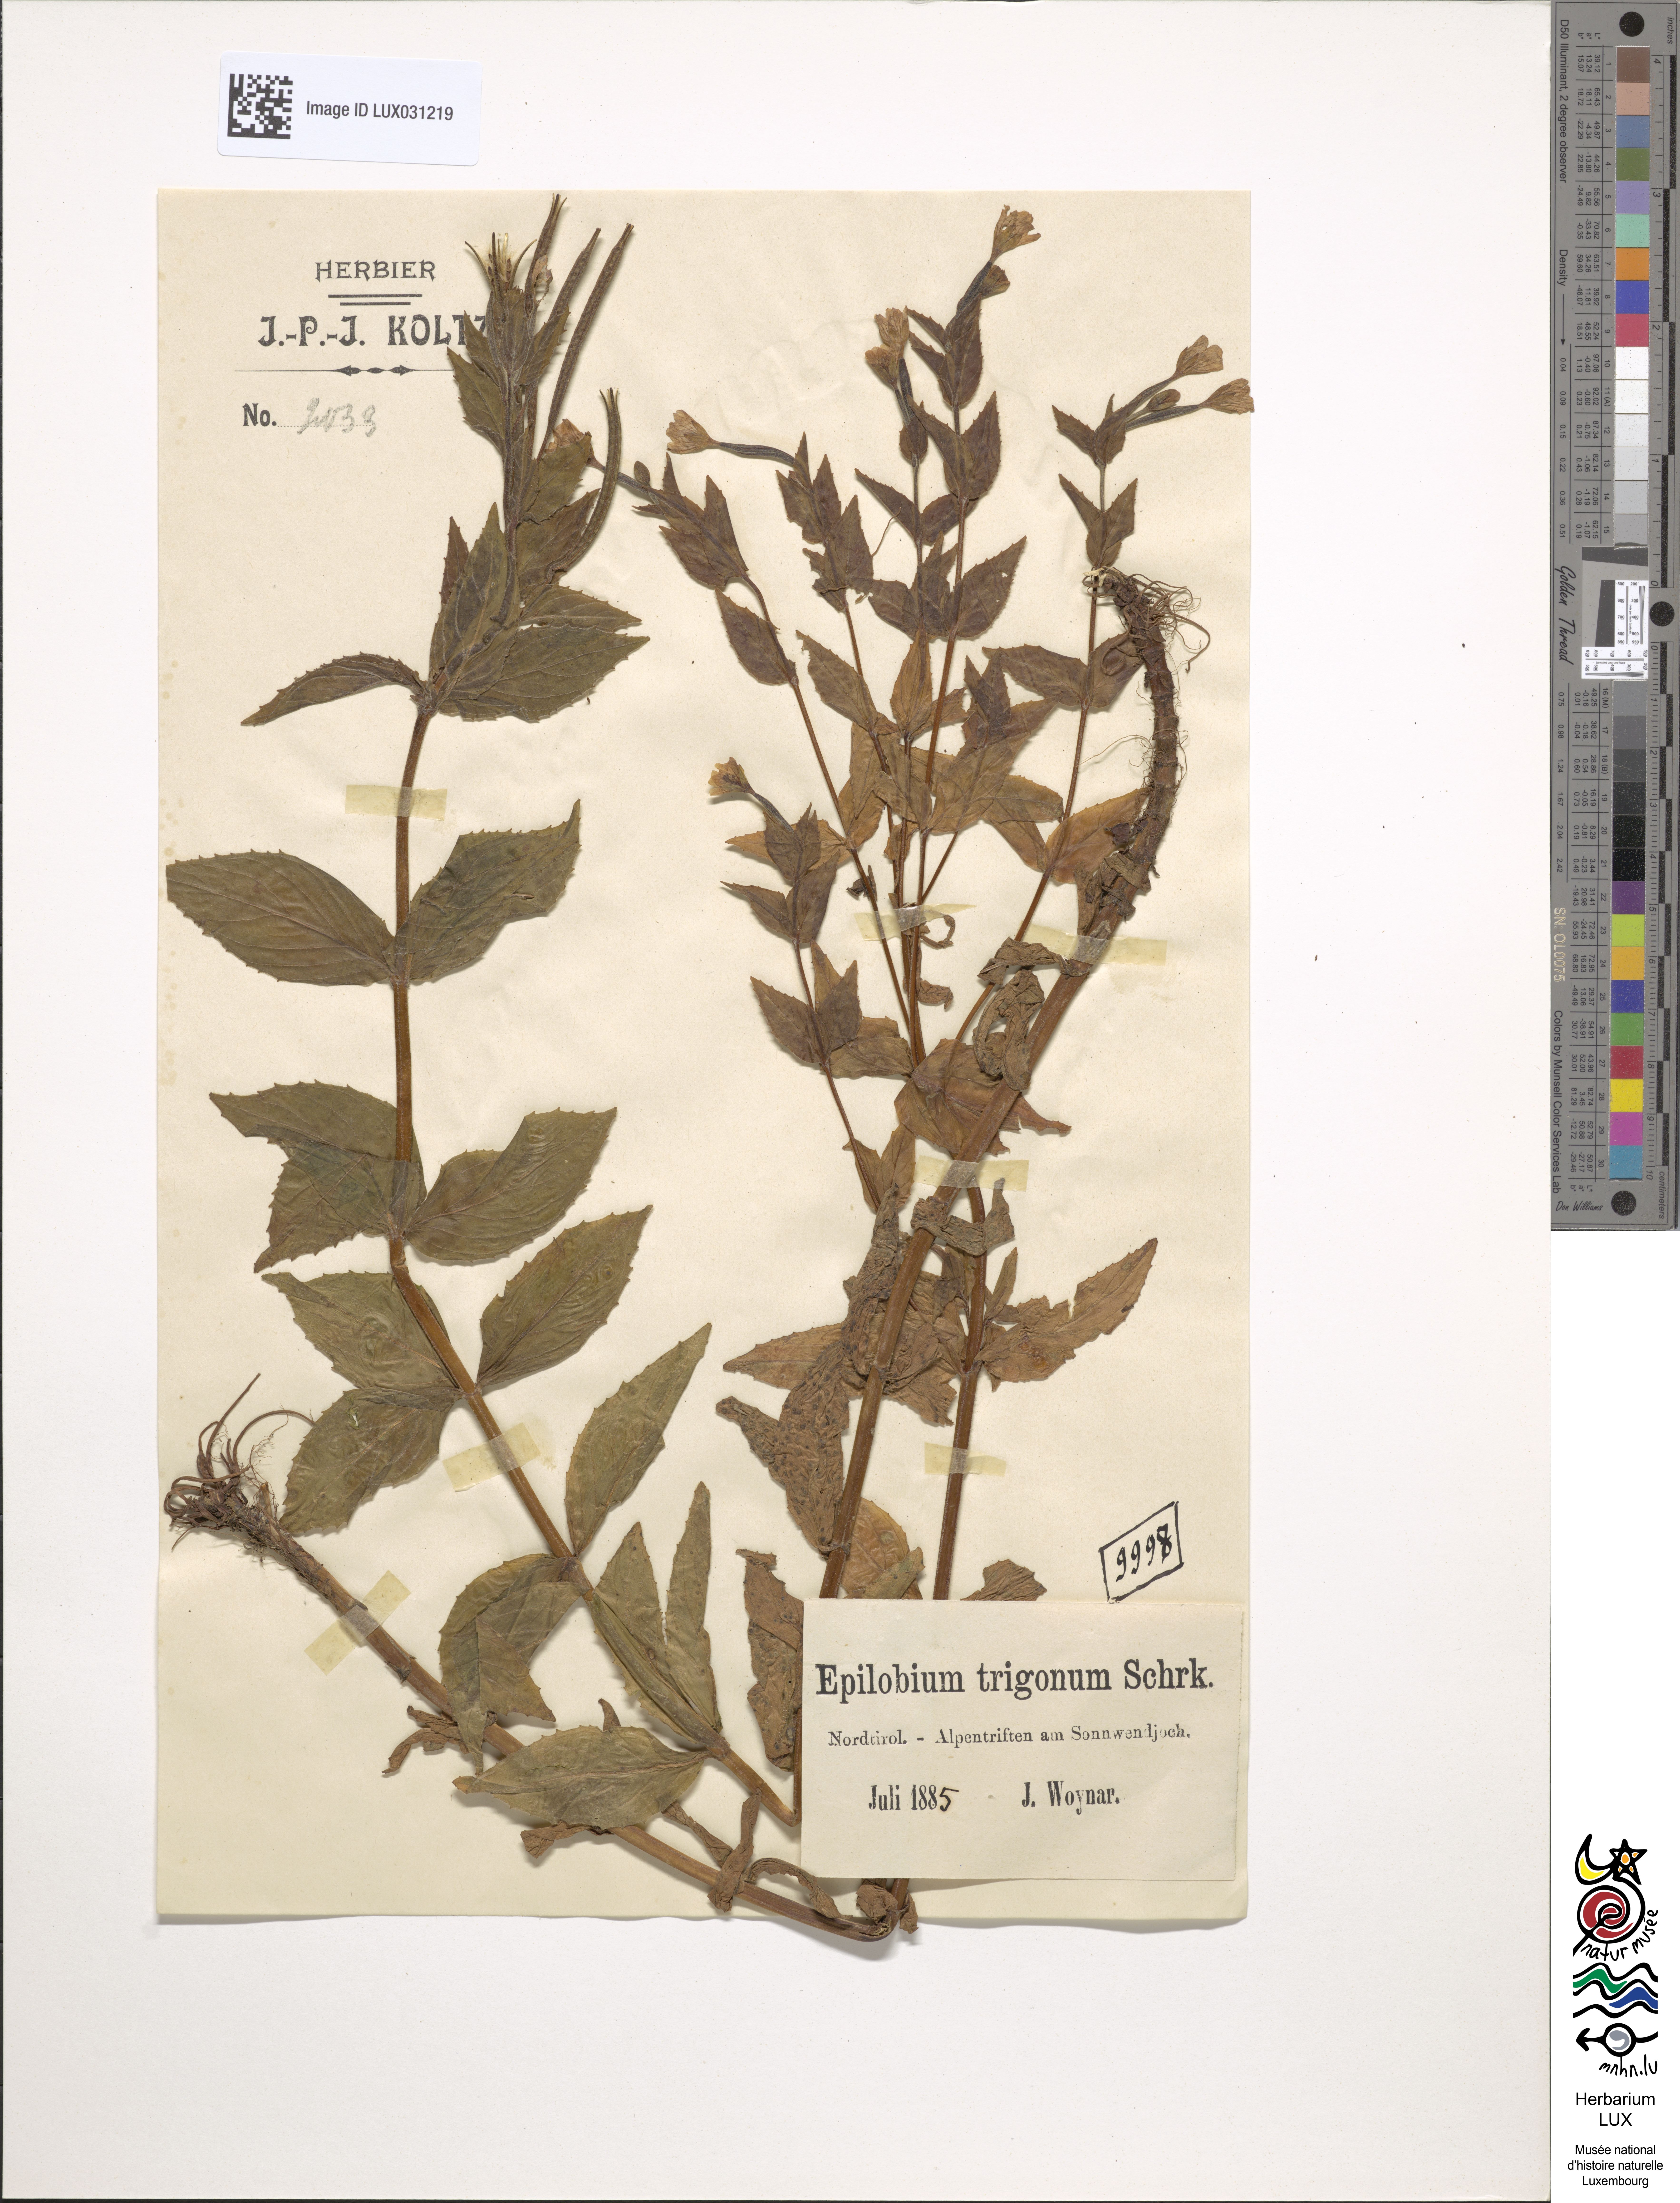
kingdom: Plantae
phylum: Tracheophyta
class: Magnoliopsida
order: Myrtales
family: Onagraceae
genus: Epilobium
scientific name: Epilobium alpestre
